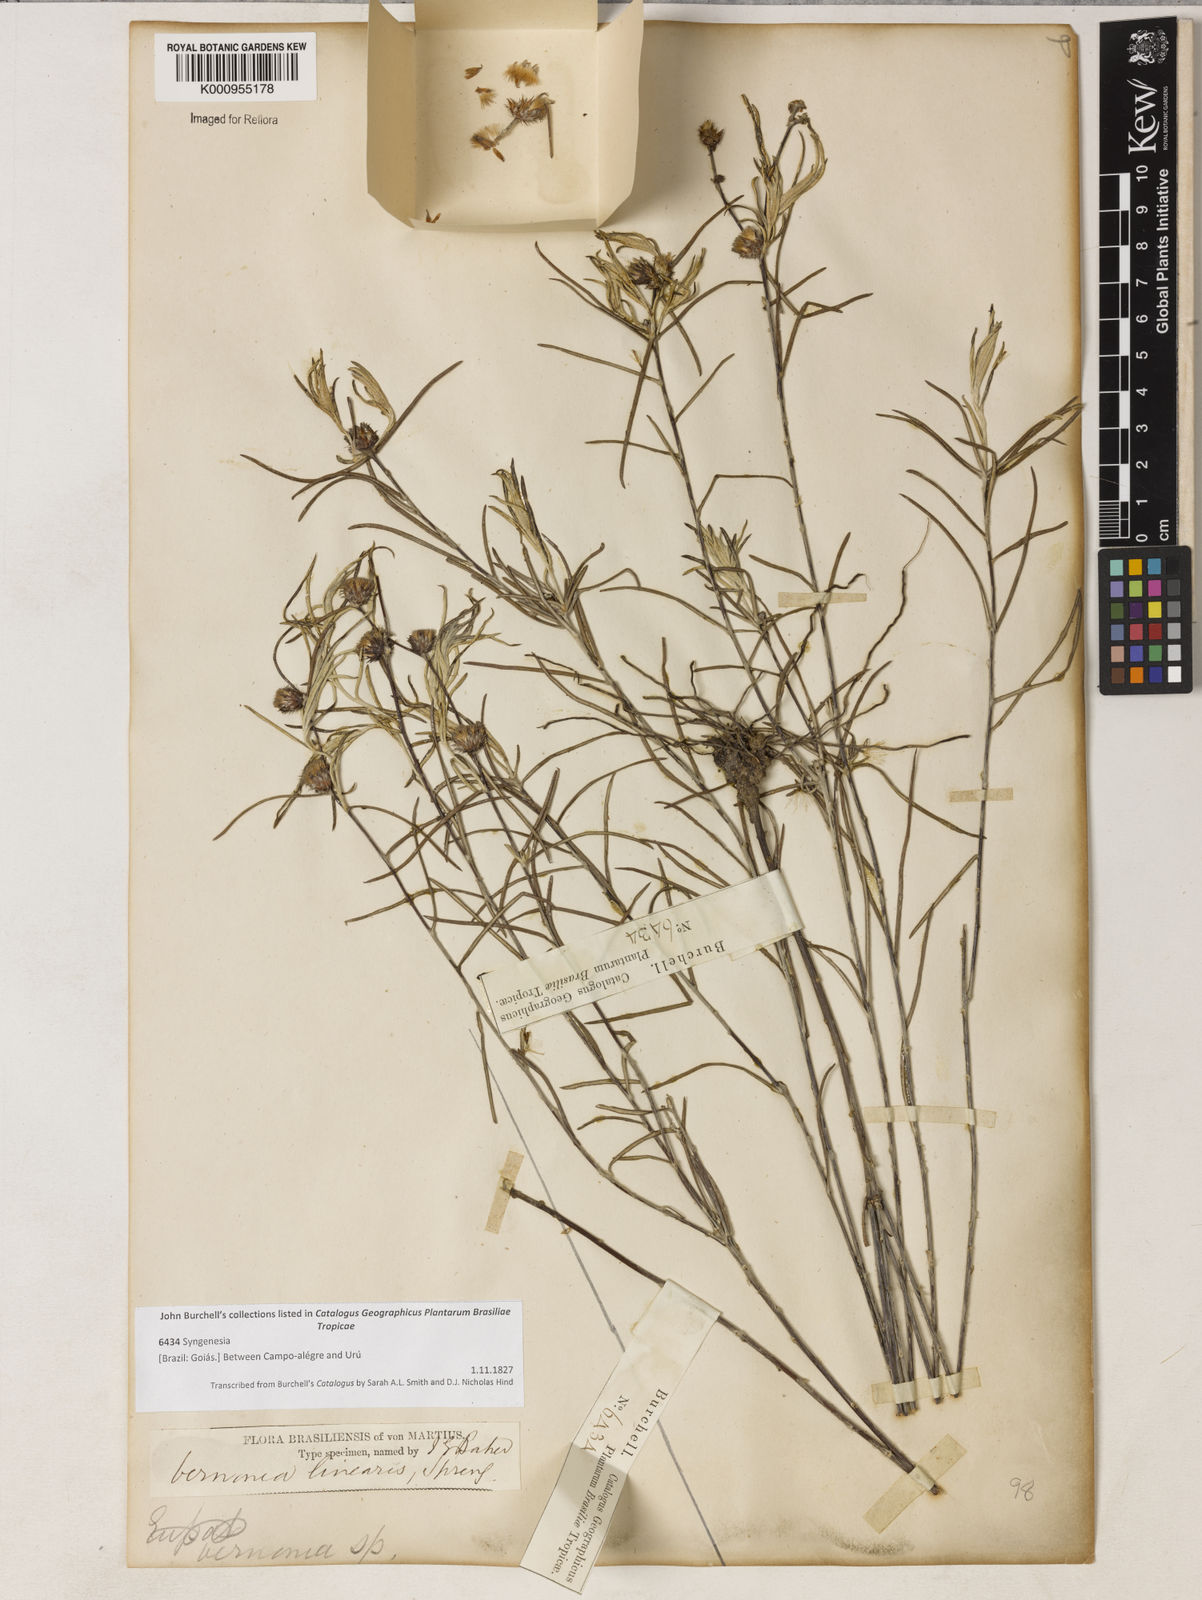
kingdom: Plantae
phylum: Tracheophyta
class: Magnoliopsida
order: Asterales
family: Asteraceae
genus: Lessingianthus
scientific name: Lessingianthus linearis
